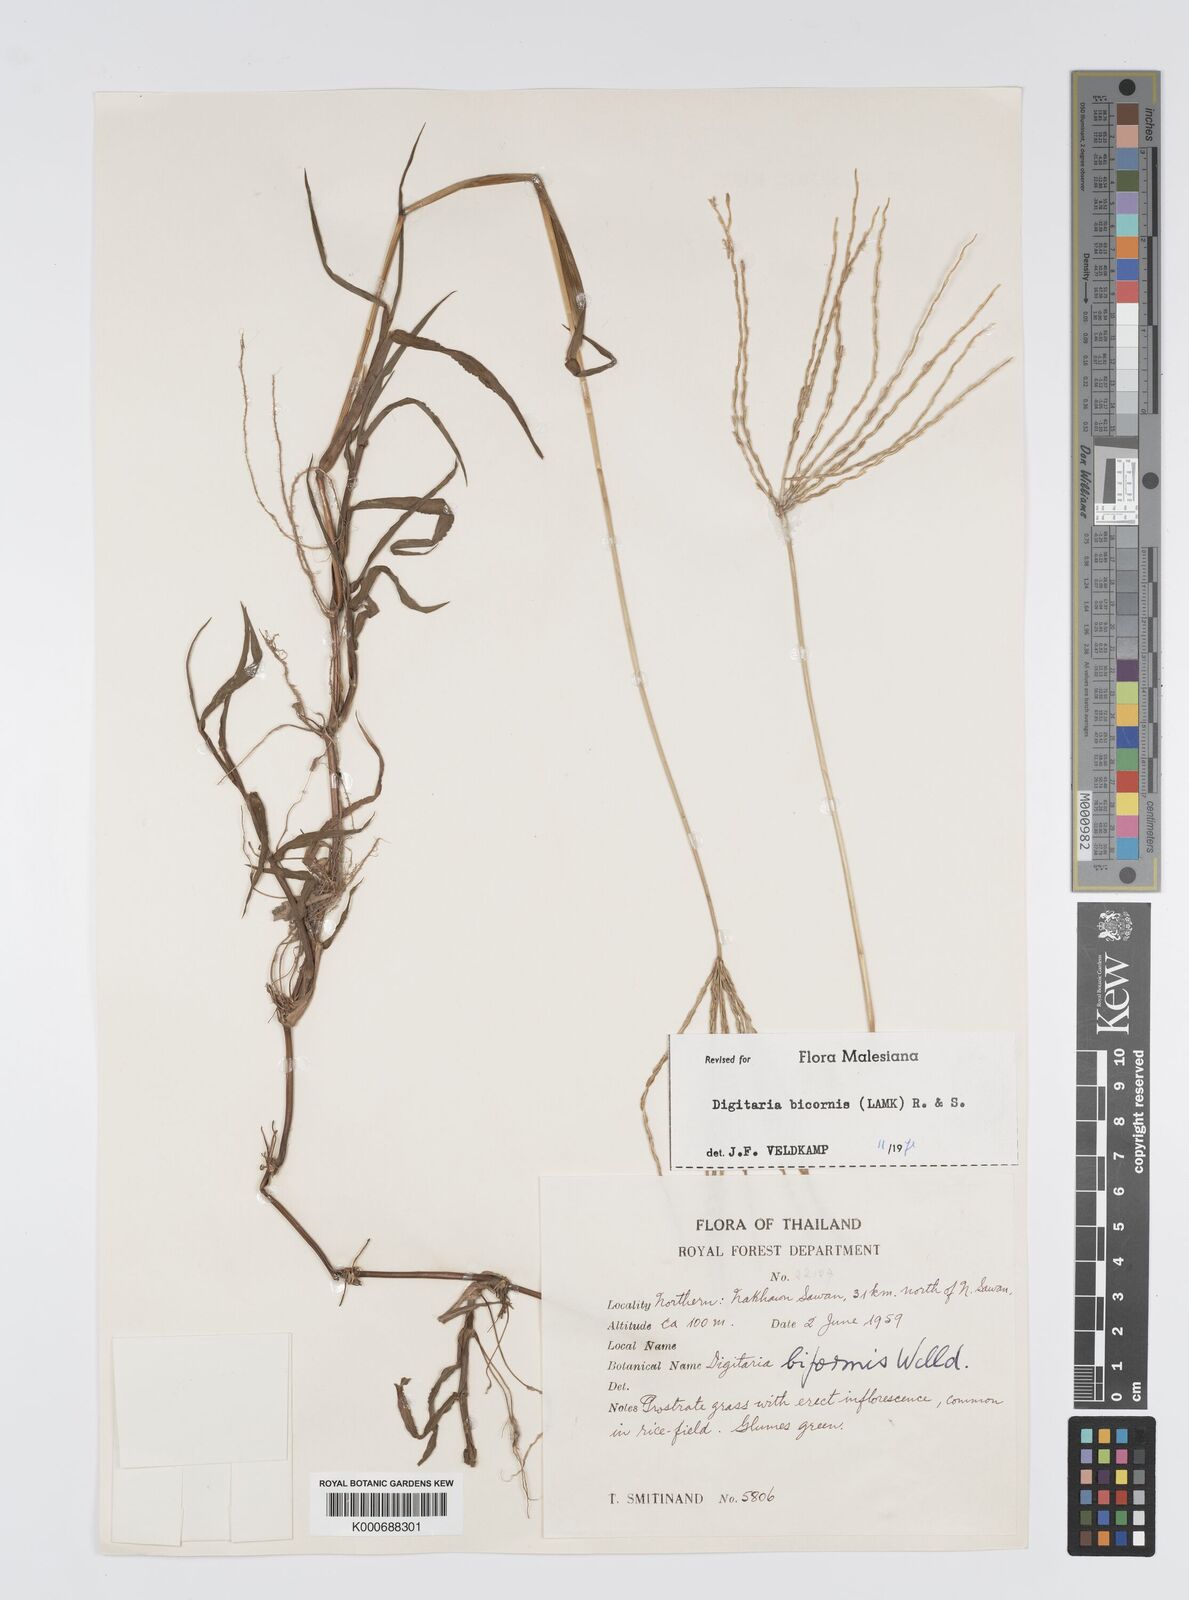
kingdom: Plantae
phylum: Tracheophyta
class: Liliopsida
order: Poales
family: Poaceae
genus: Digitaria
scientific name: Digitaria bicornis
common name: Asian crabgrass
